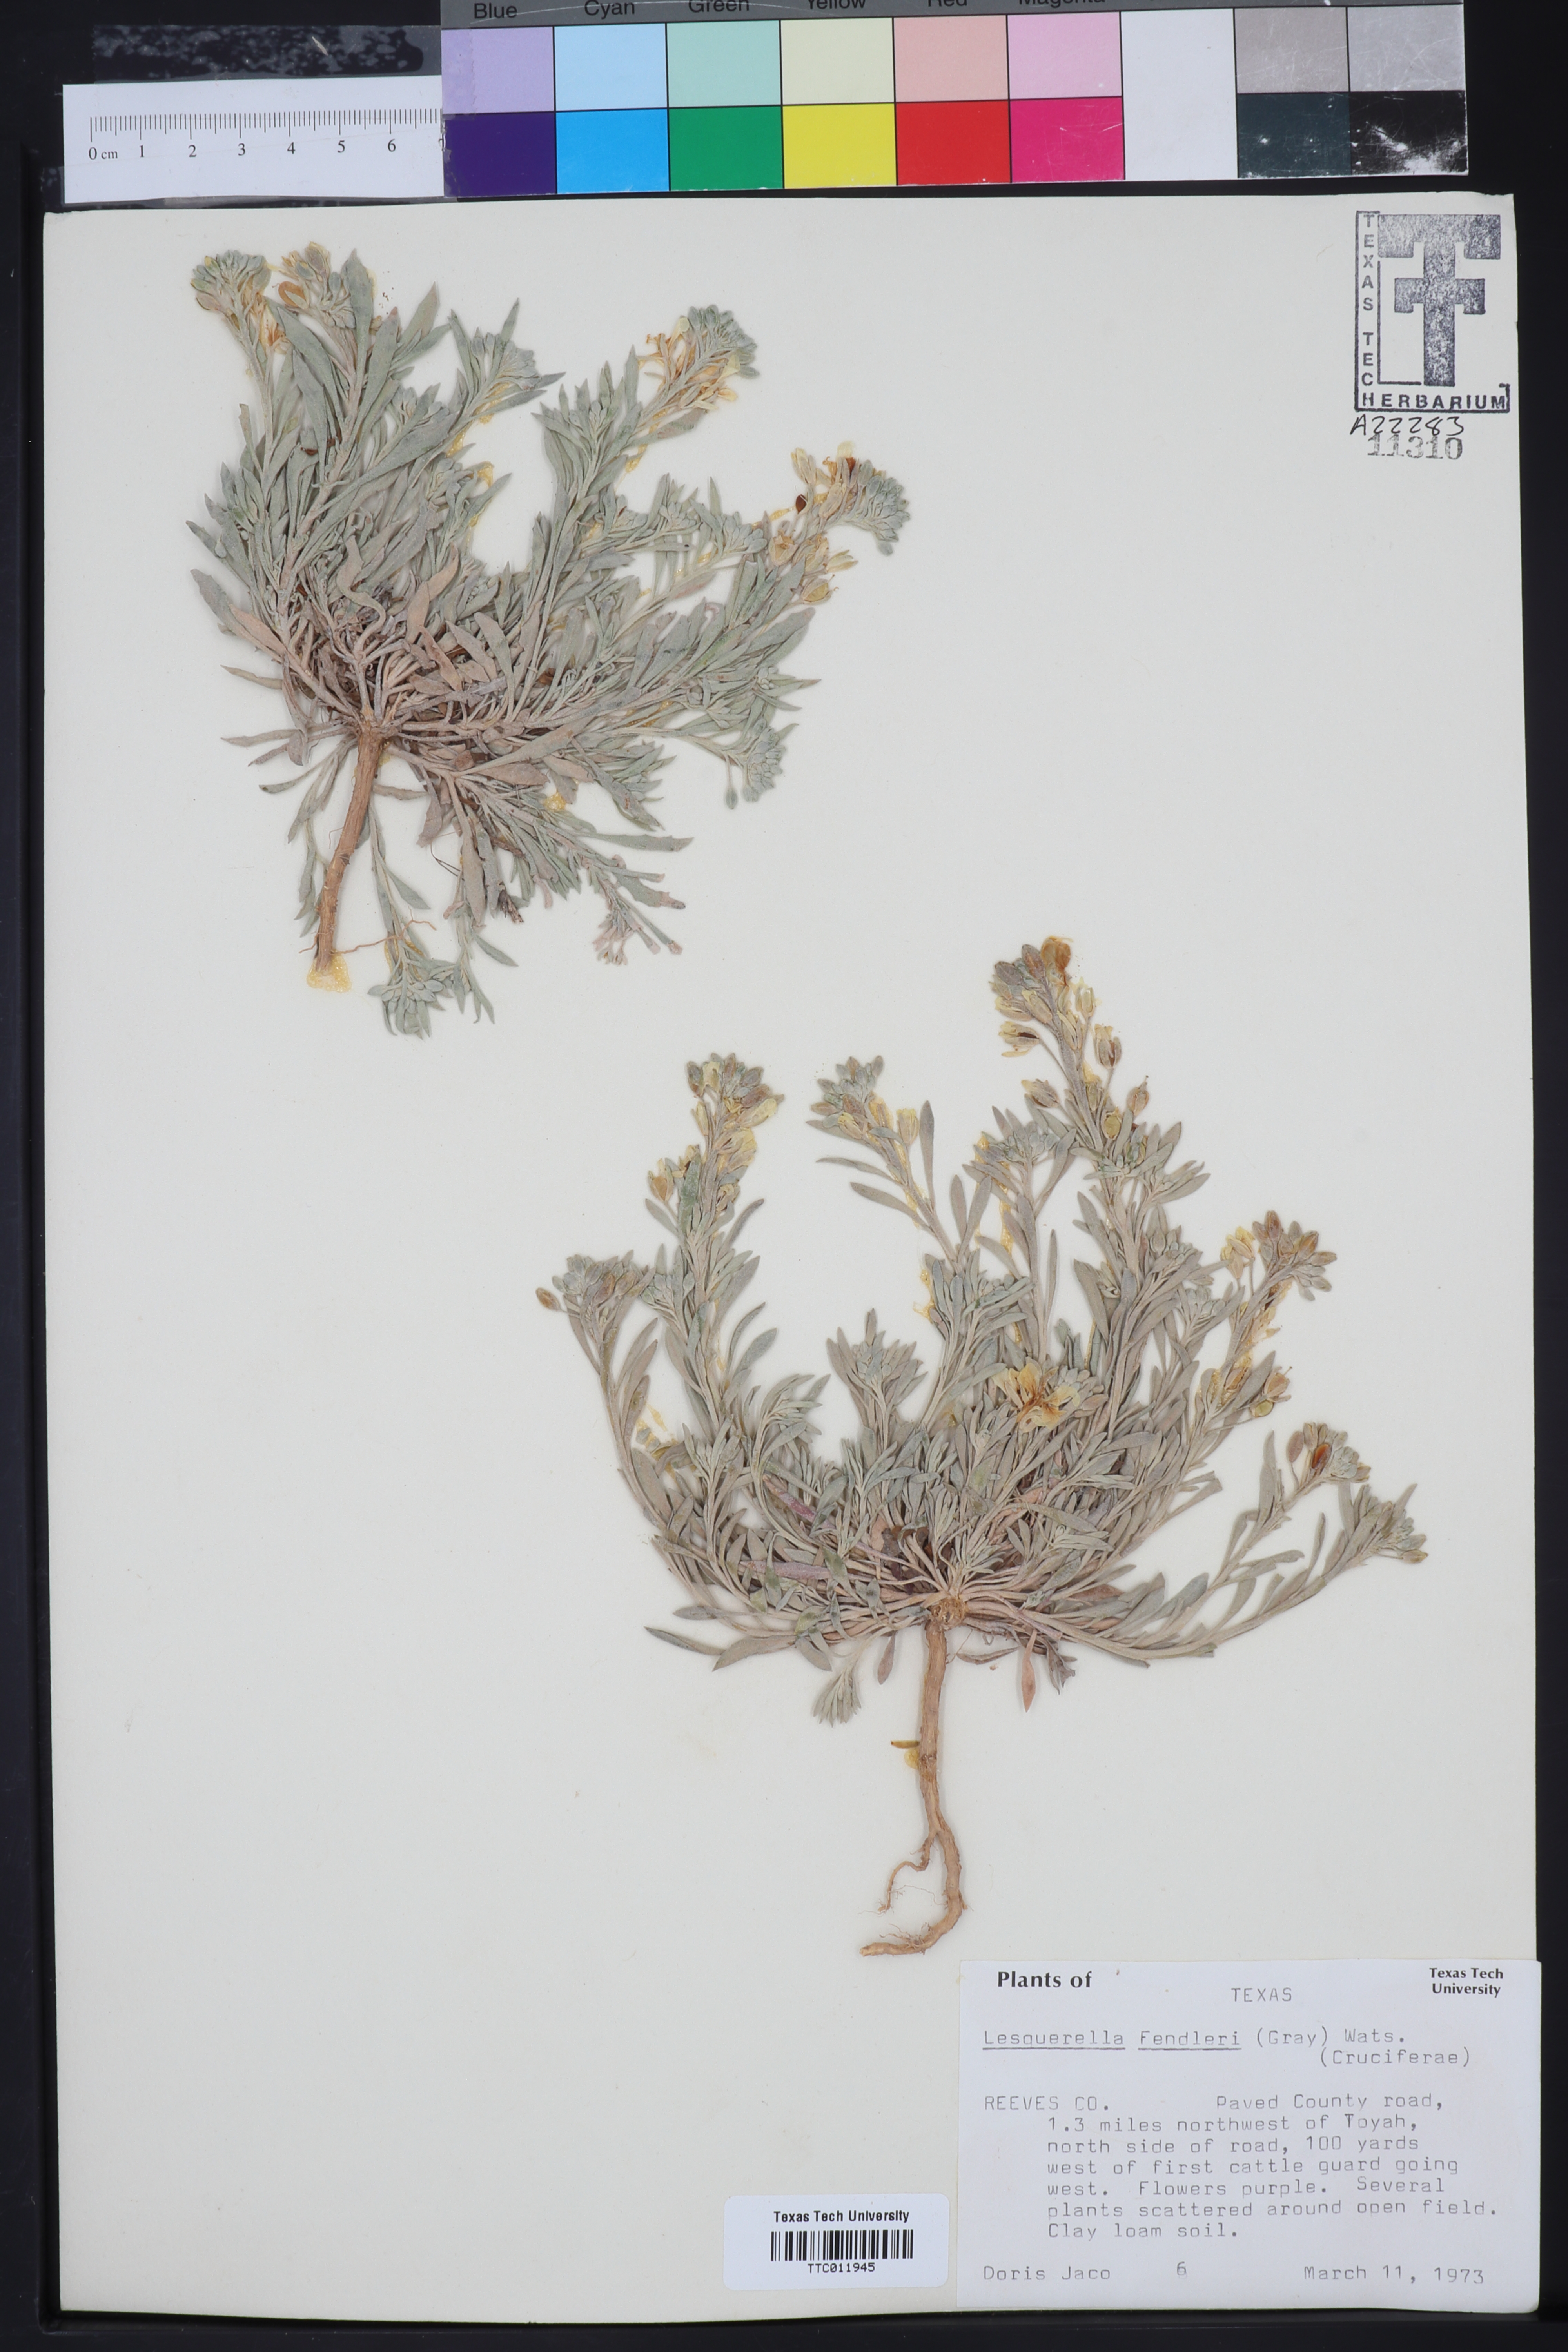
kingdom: Plantae
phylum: Tracheophyta
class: Magnoliopsida
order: Brassicales
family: Brassicaceae
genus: Physaria
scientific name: Physaria fendleri
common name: Fendler's bladderpod
